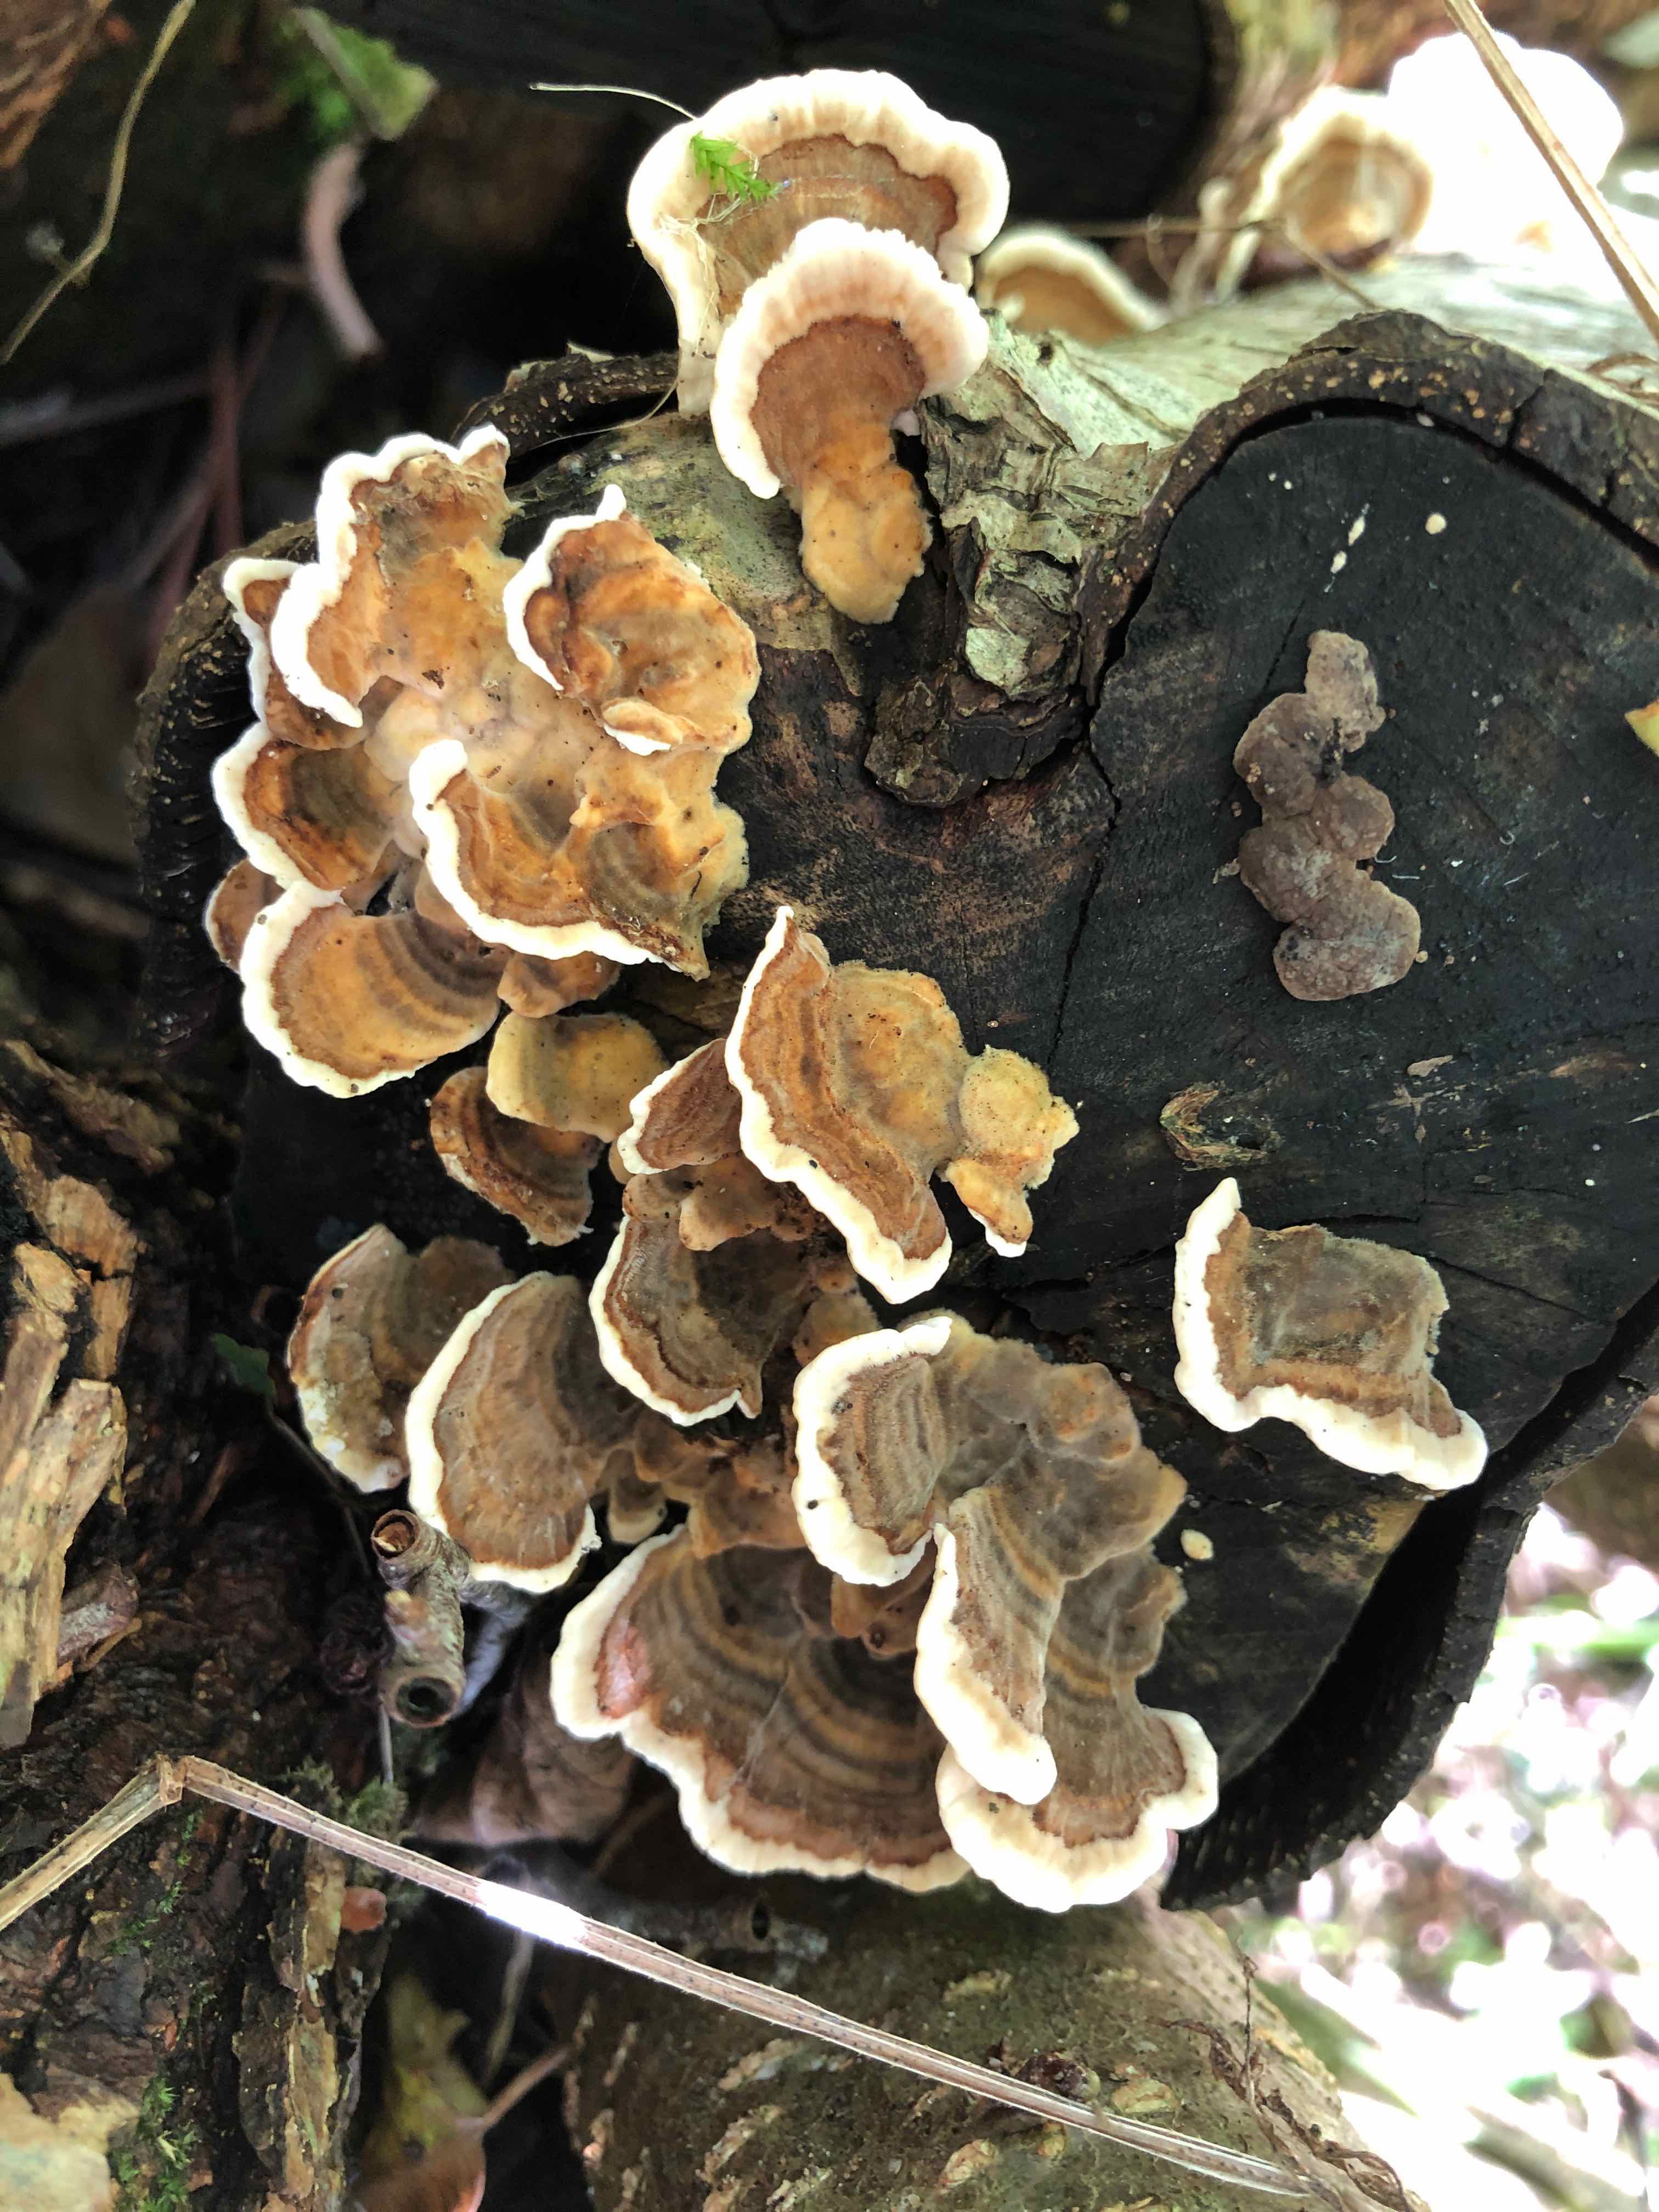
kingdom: Fungi
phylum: Basidiomycota
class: Agaricomycetes
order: Polyporales
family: Polyporaceae
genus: Trametes
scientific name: Trametes versicolor
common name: broget læderporesvamp
